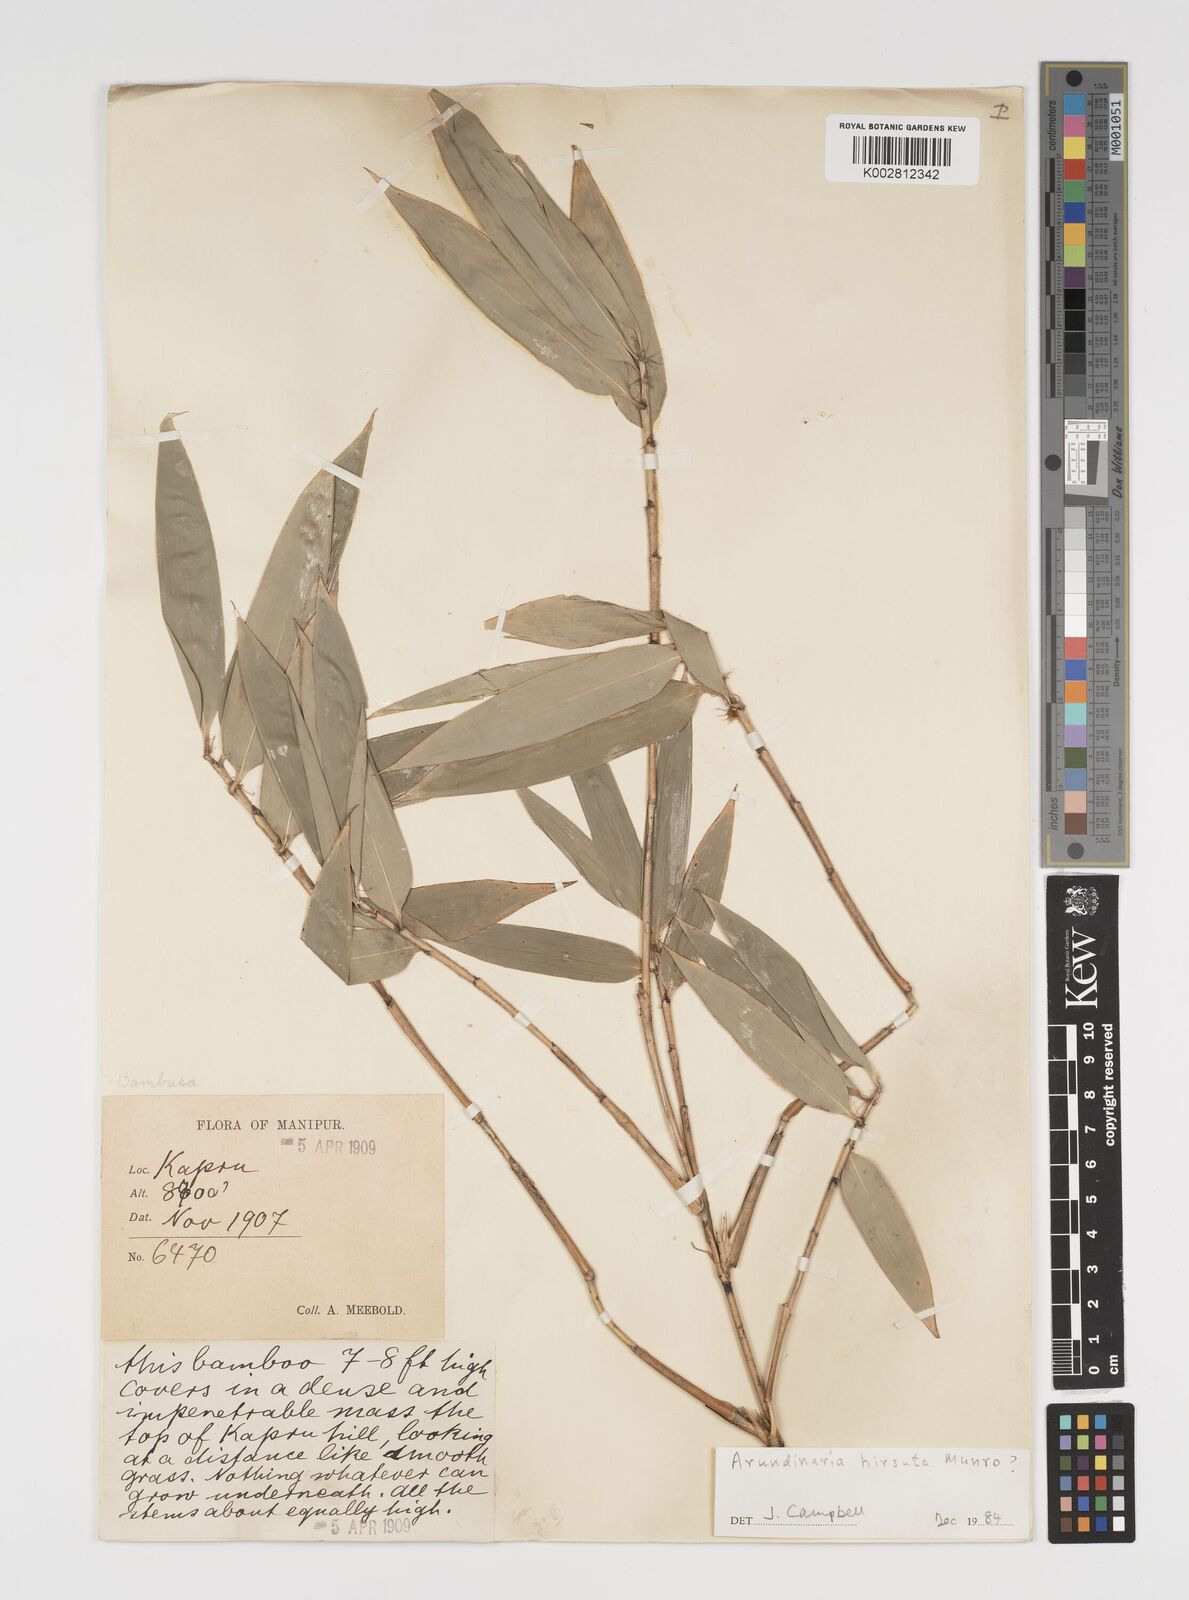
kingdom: Plantae
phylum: Tracheophyta
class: Liliopsida
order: Poales
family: Poaceae
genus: Yushania
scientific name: Yushania hirsuta
